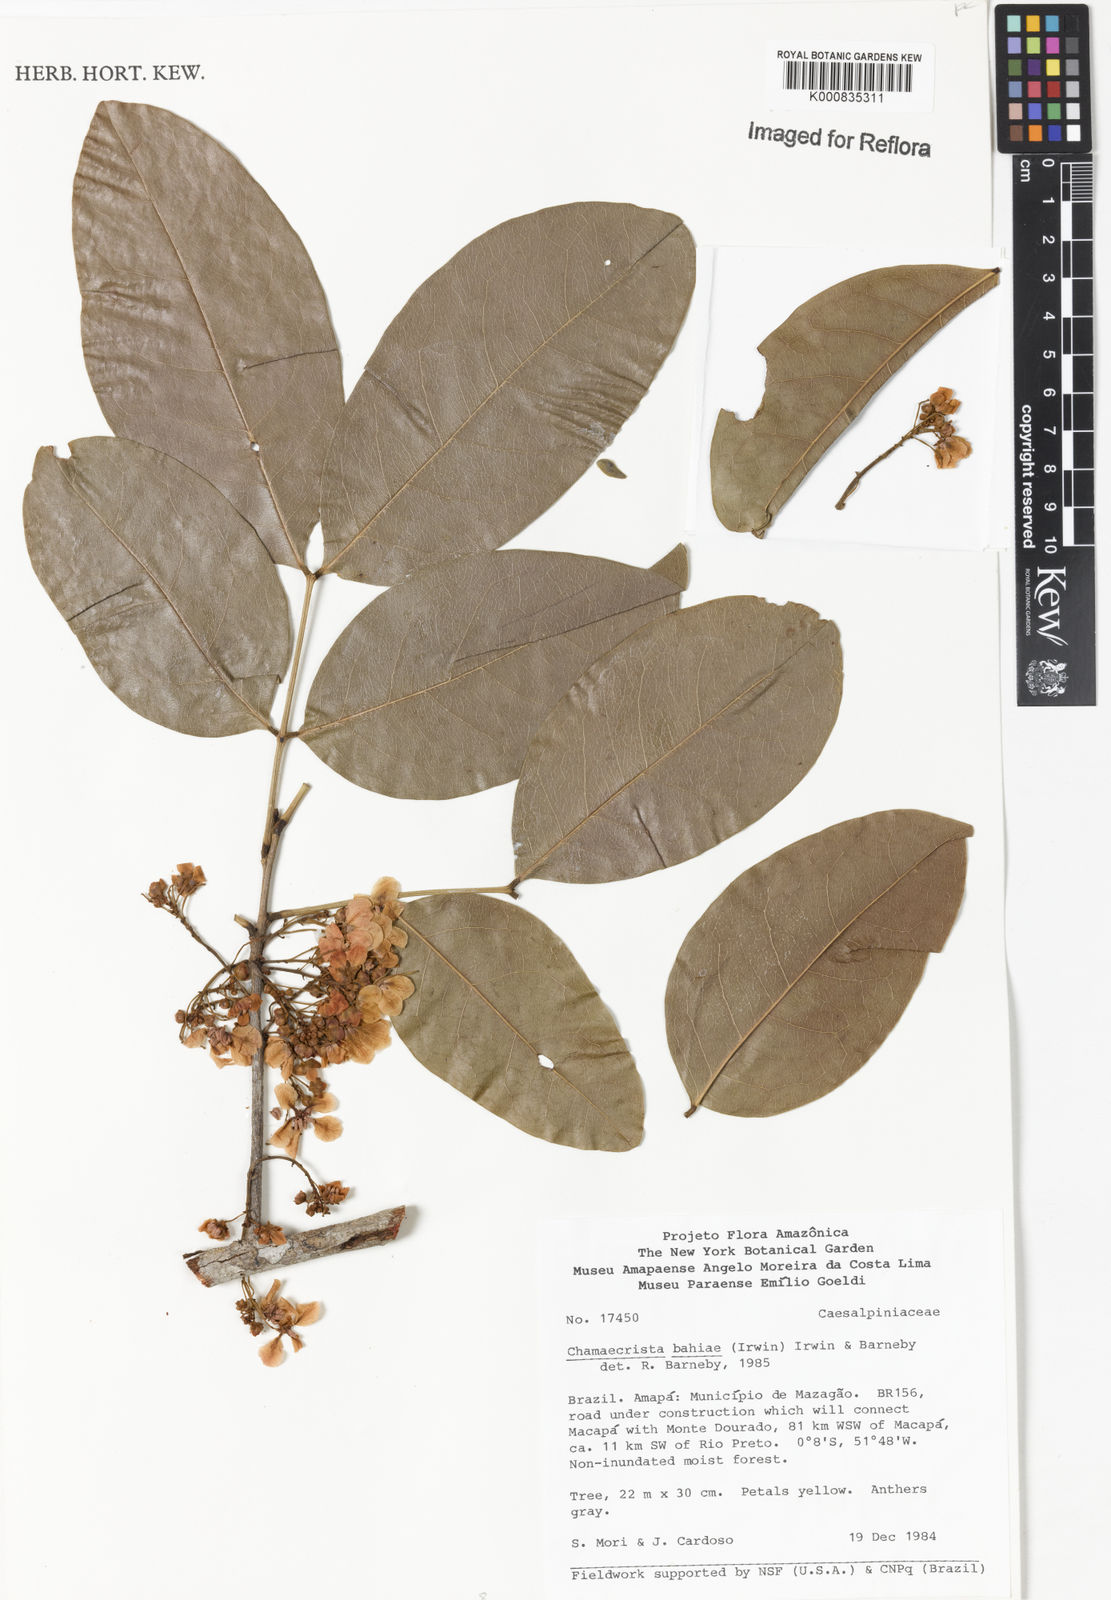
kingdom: Plantae
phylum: Tracheophyta
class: Magnoliopsida
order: Fabales
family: Fabaceae
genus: Chamaecrista
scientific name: Chamaecrista bahiae
